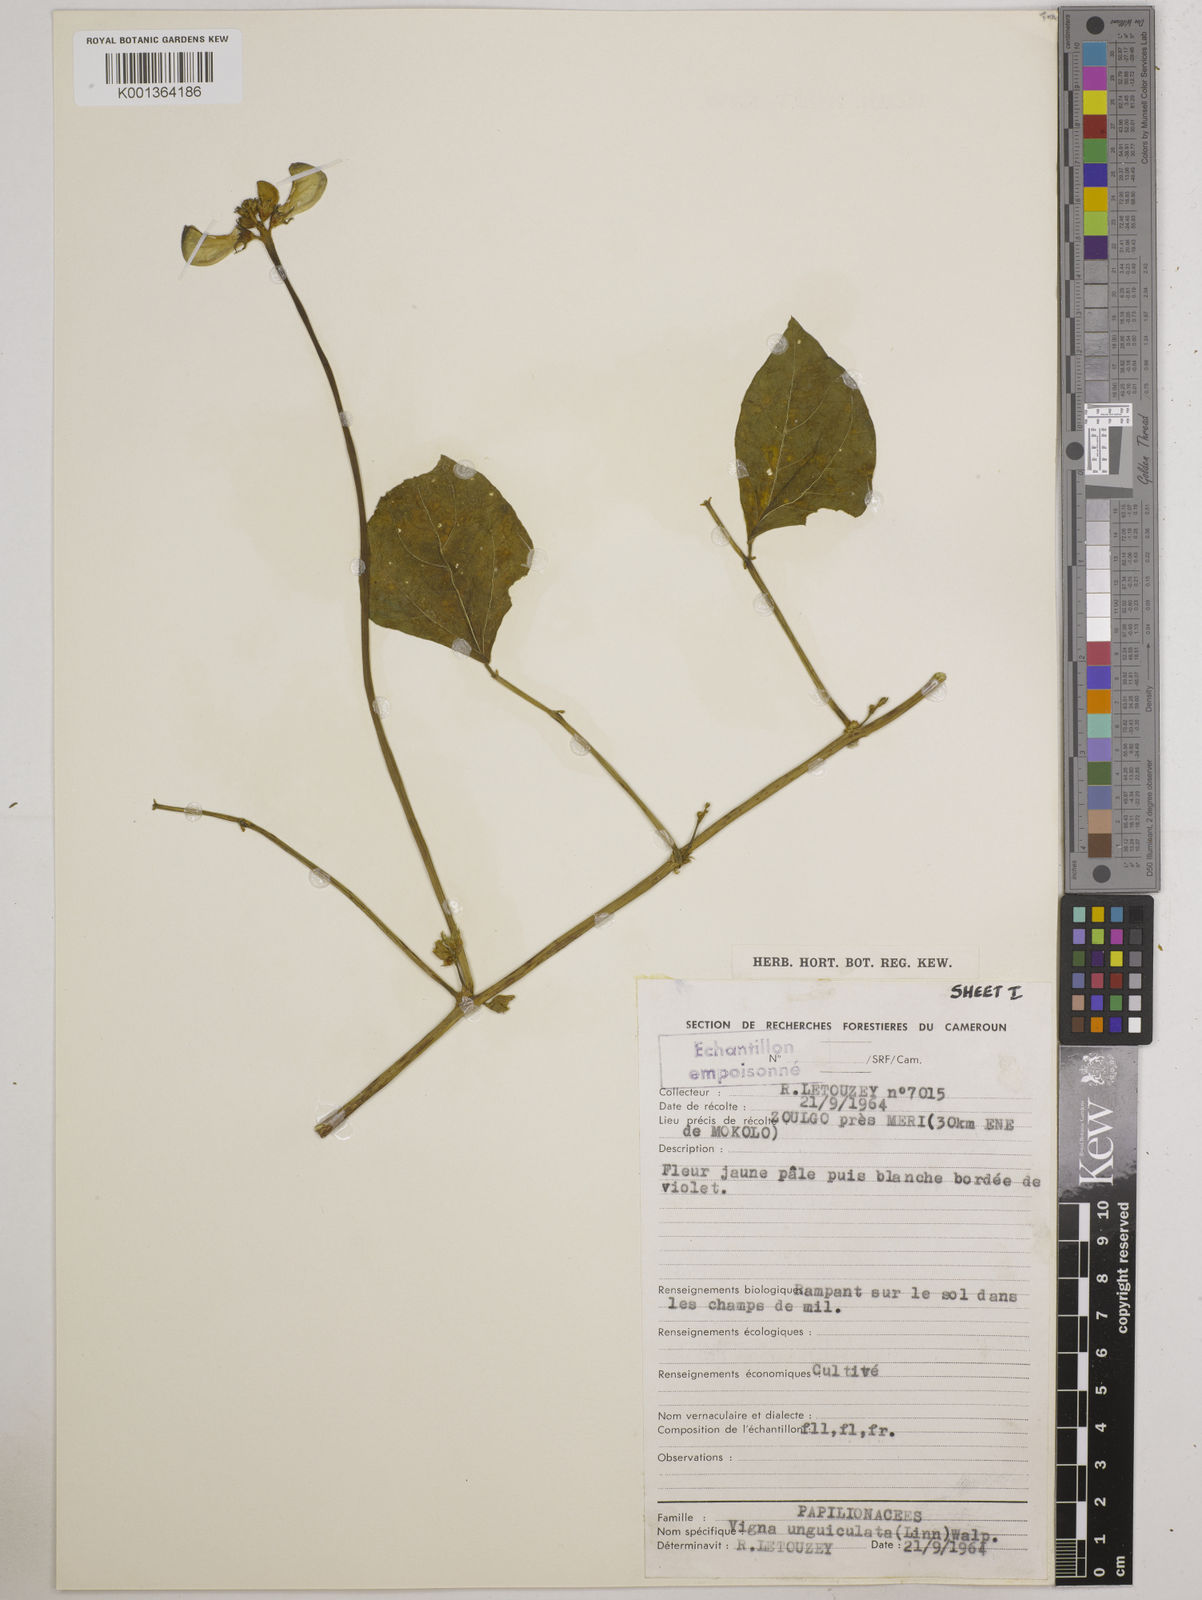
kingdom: Plantae
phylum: Tracheophyta
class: Magnoliopsida
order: Fabales
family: Fabaceae
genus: Vigna
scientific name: Vigna
